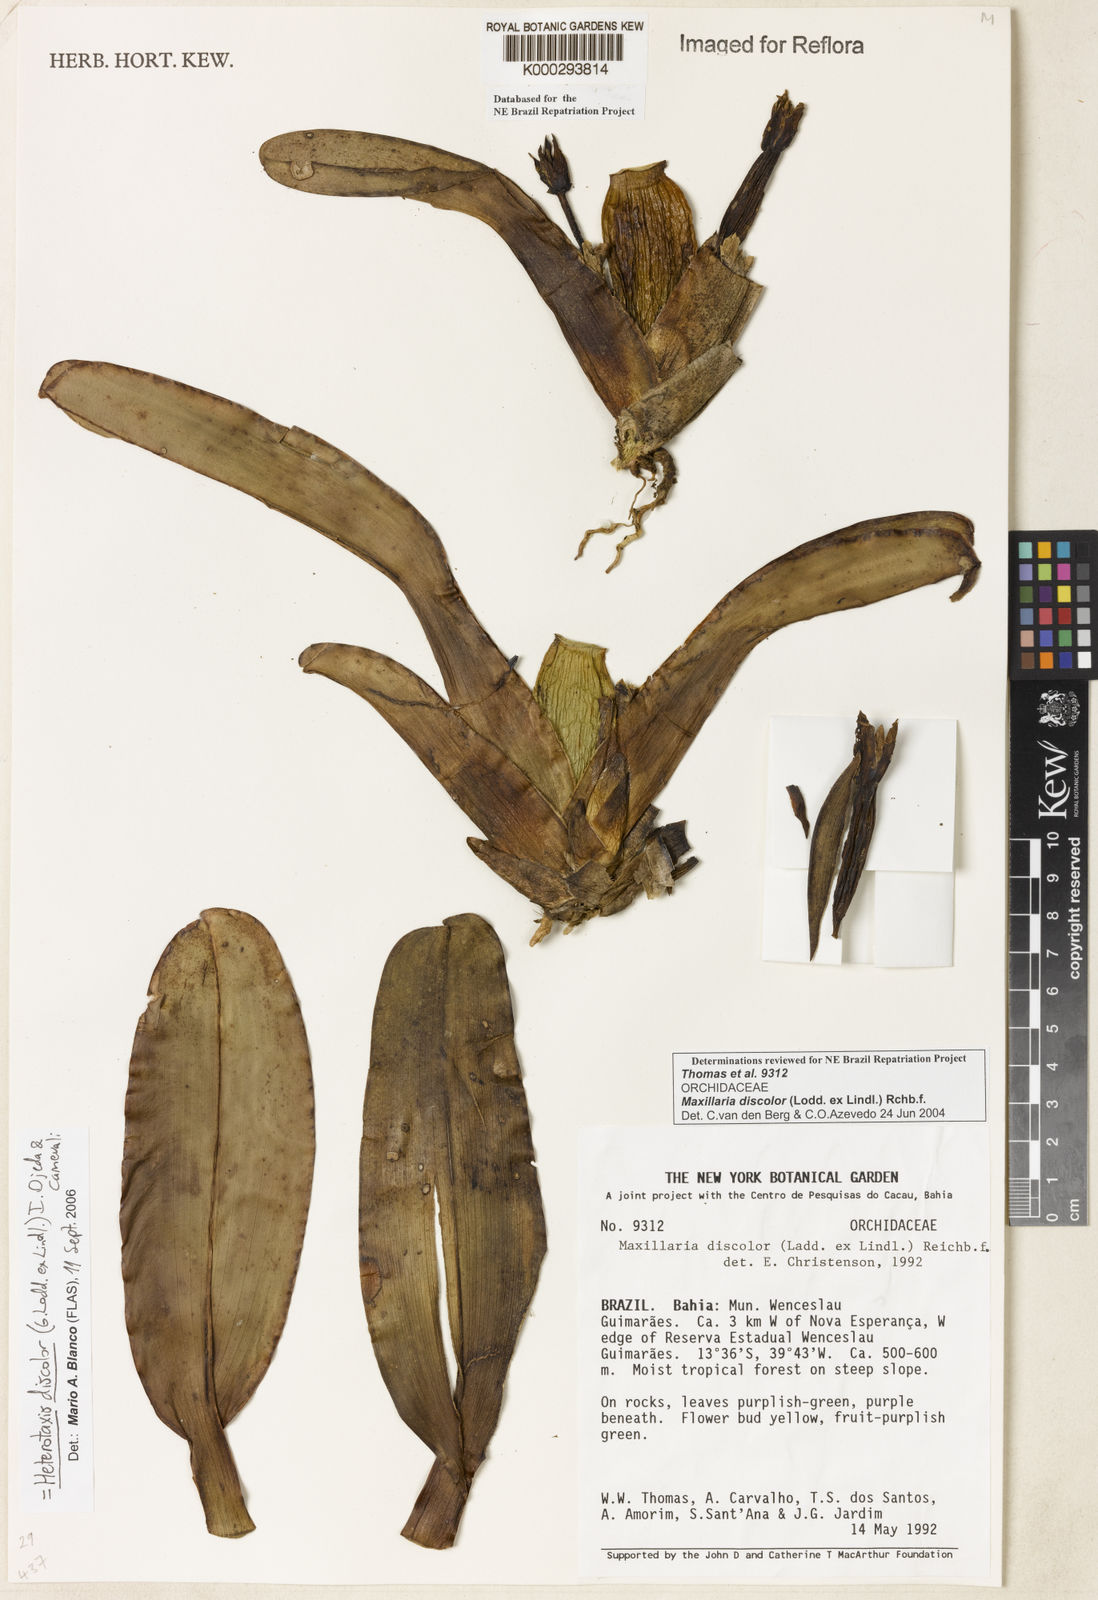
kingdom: Plantae
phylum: Tracheophyta
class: Liliopsida
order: Asparagales
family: Orchidaceae
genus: Maxillaria
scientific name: Maxillaria discolor
